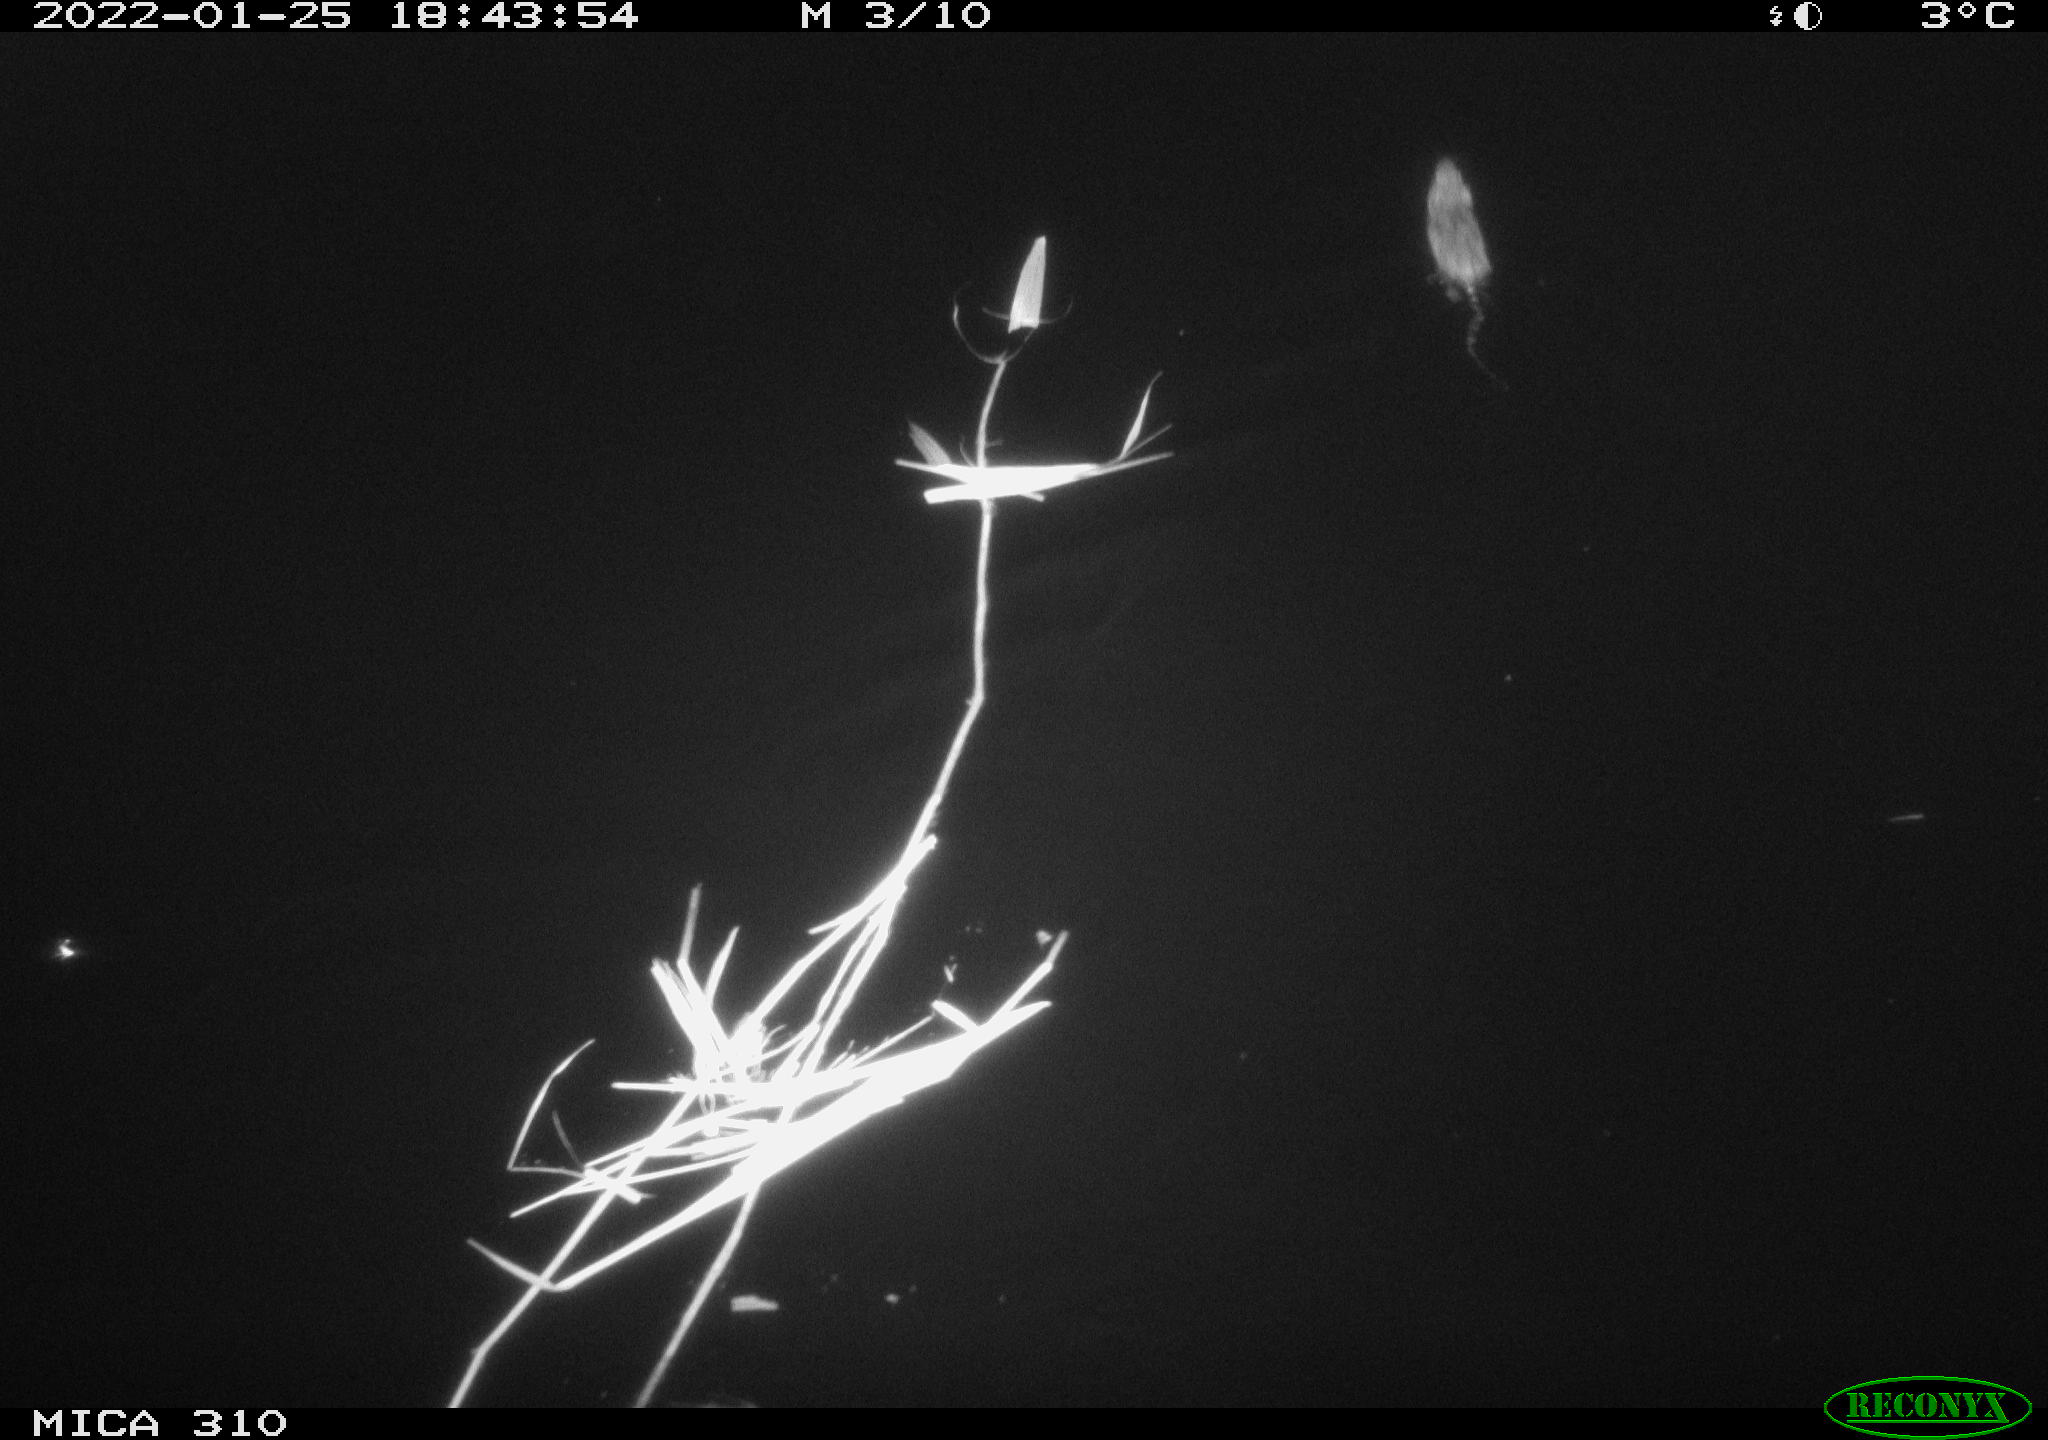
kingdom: Animalia
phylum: Chordata
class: Mammalia
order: Rodentia
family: Muridae
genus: Rattus
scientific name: Rattus norvegicus
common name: Brown rat
